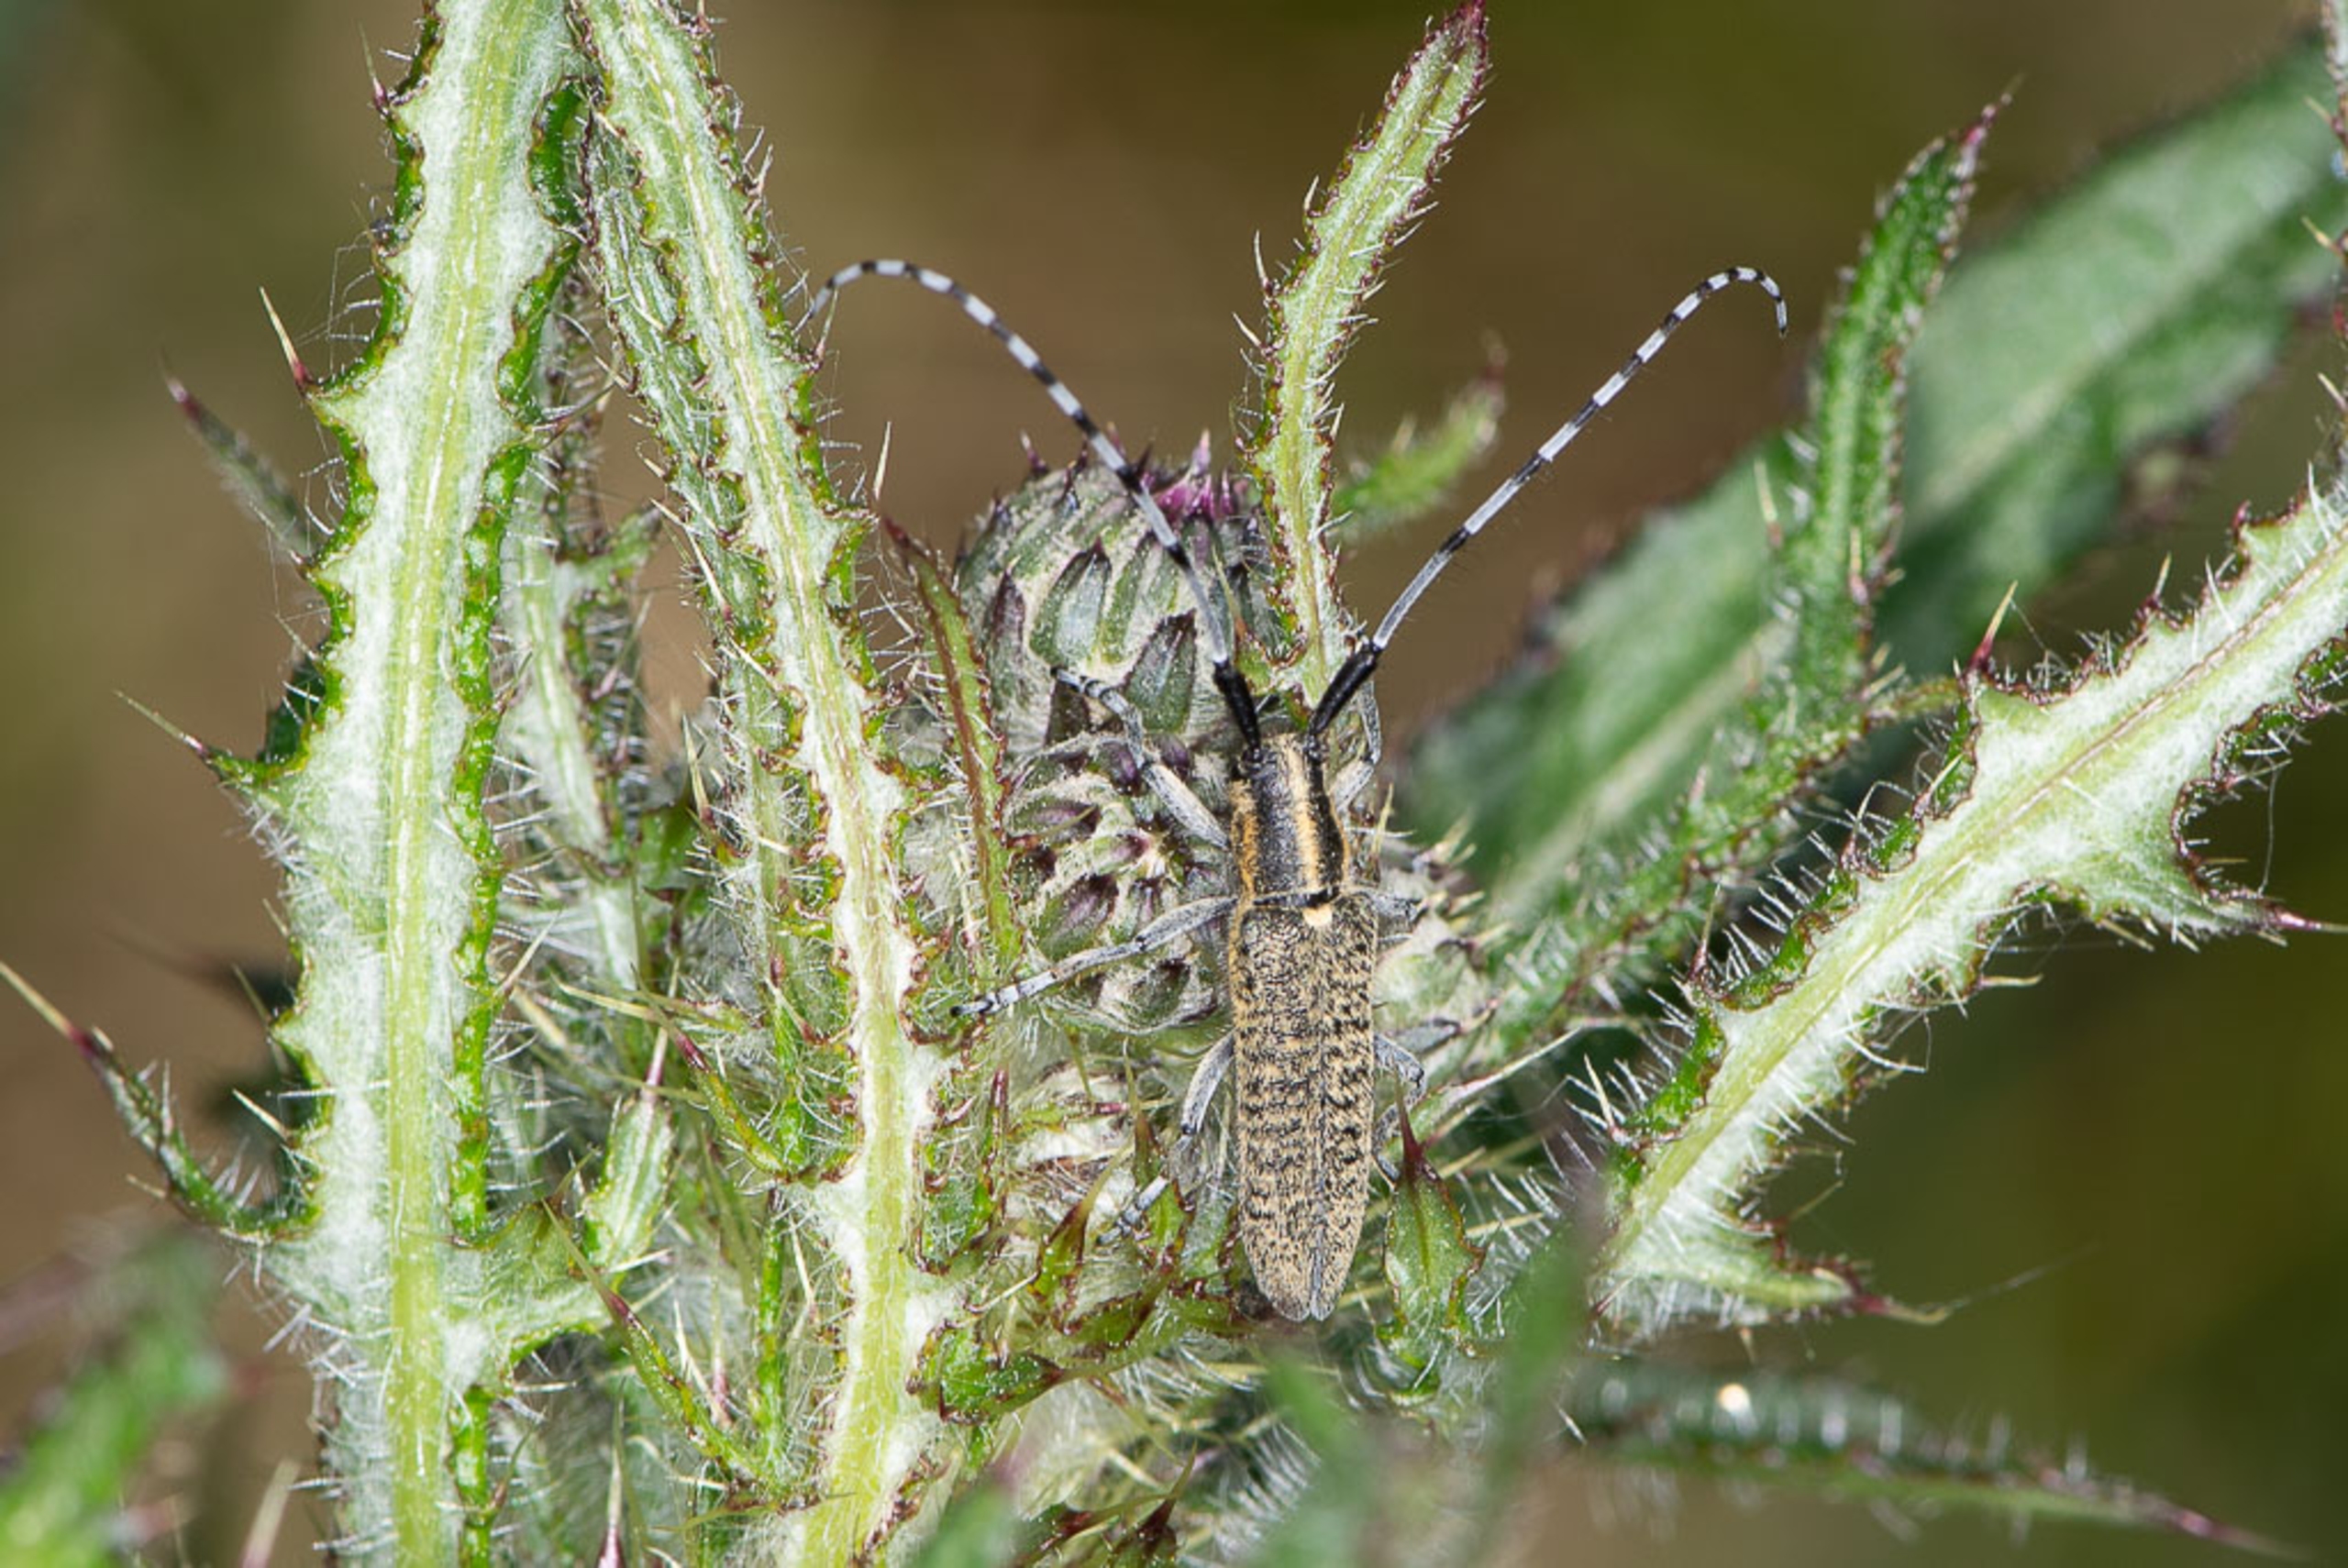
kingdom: Animalia
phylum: Arthropoda
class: Insecta
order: Coleoptera
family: Cerambycidae
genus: Agapanthia
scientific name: Agapanthia villosoviridescens
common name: Tidselbuk
